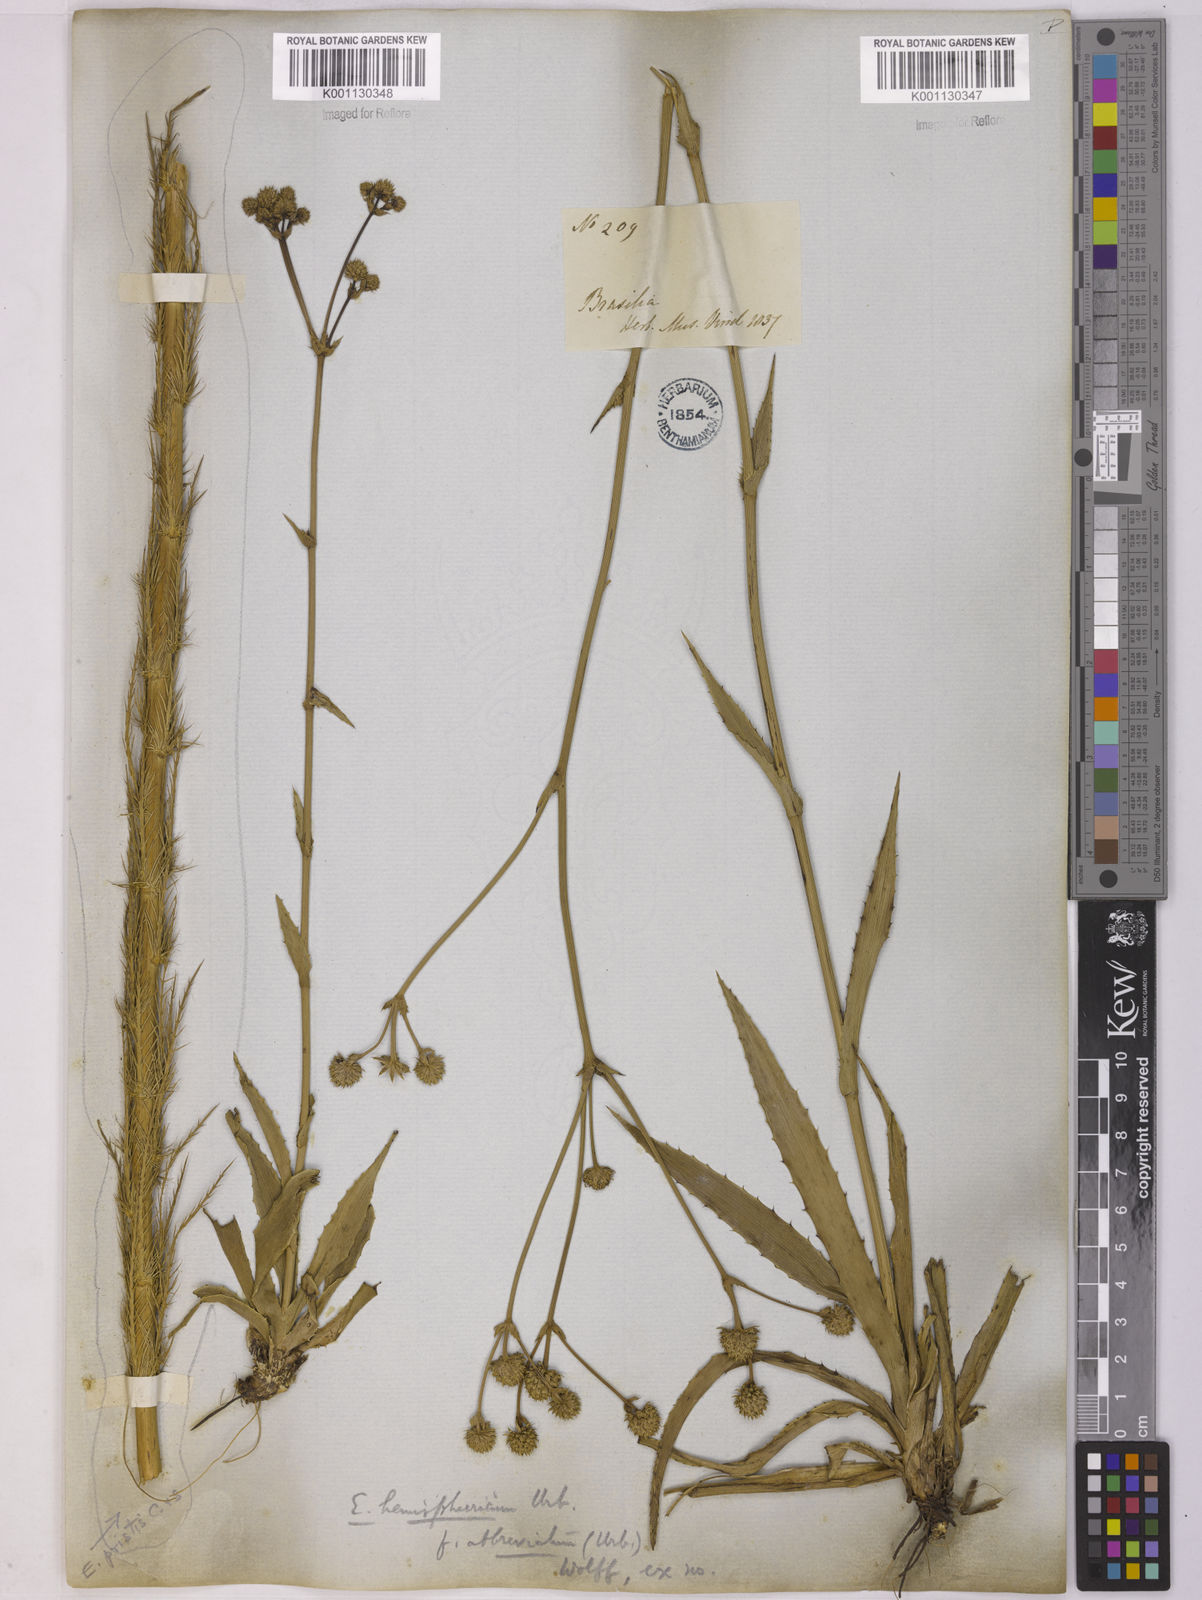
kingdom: Plantae
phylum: Tracheophyta
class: Magnoliopsida
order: Apiales
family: Apiaceae
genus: Eryngium
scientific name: Eryngium hemisphaericum
